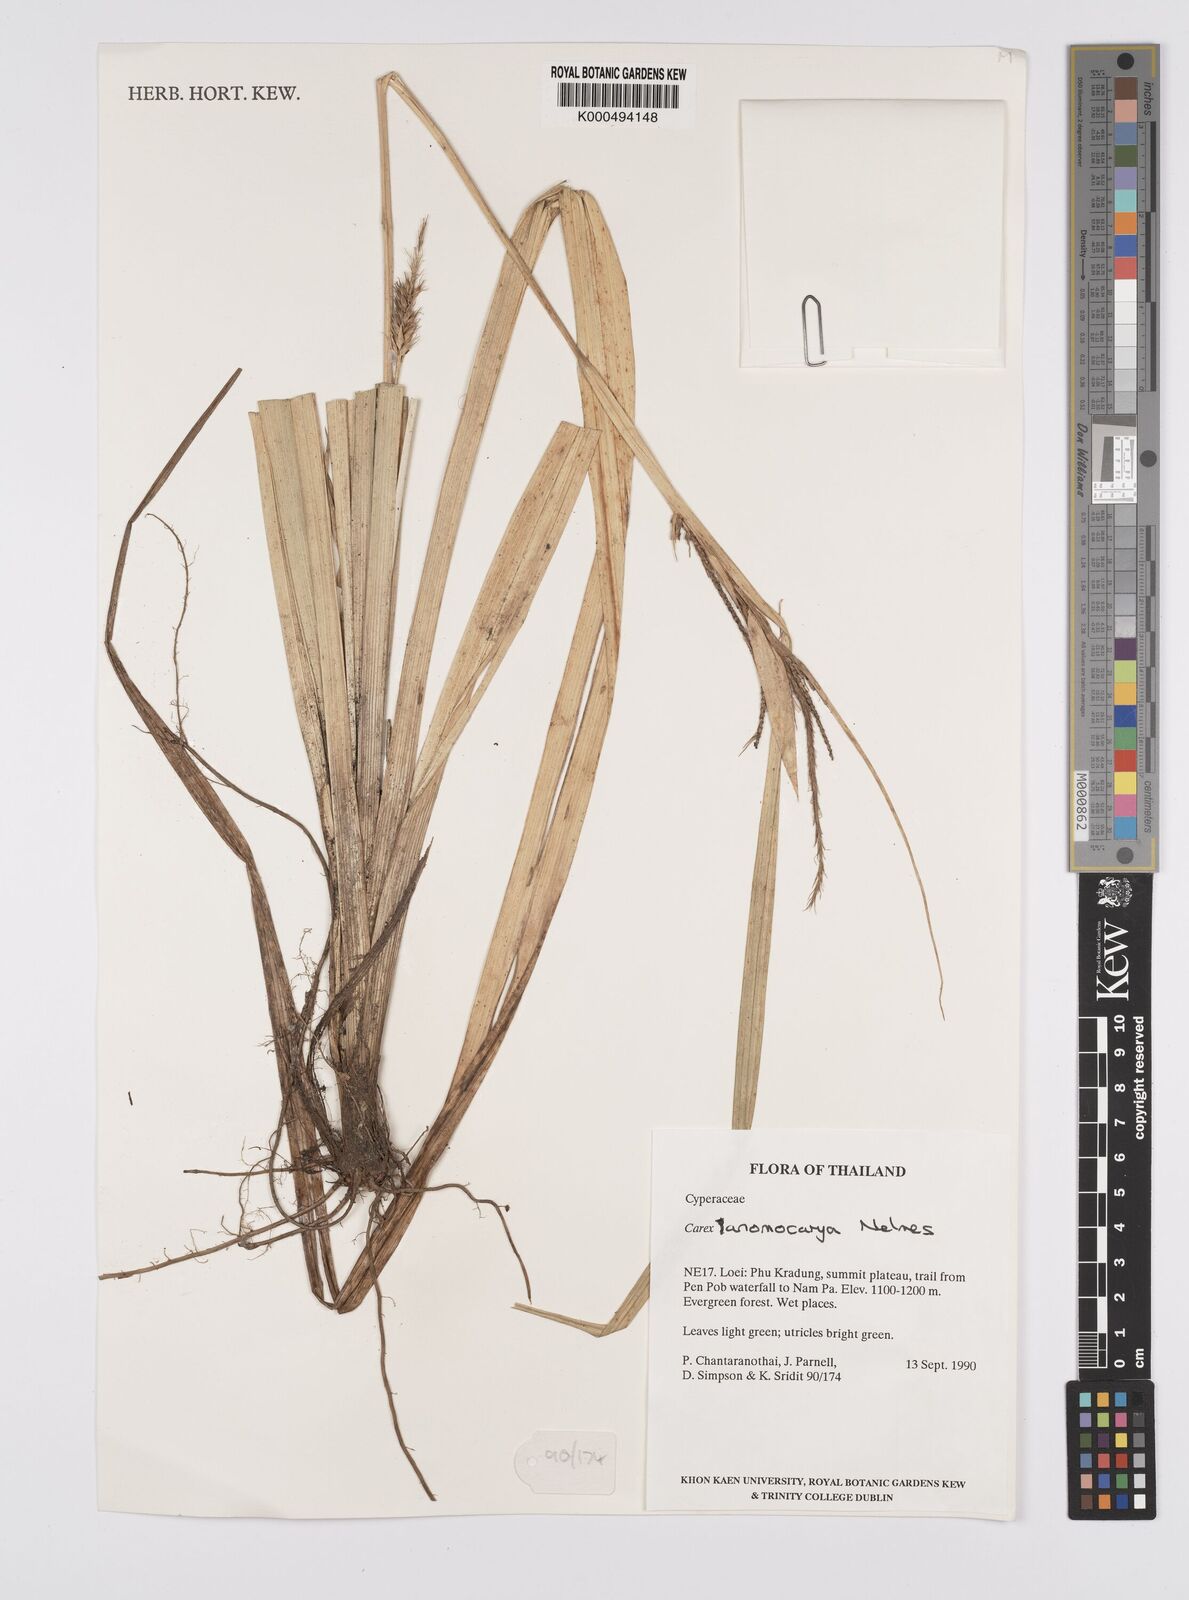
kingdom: Plantae
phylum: Tracheophyta
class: Liliopsida
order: Poales
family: Cyperaceae
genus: Carex
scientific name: Carex harlandii
